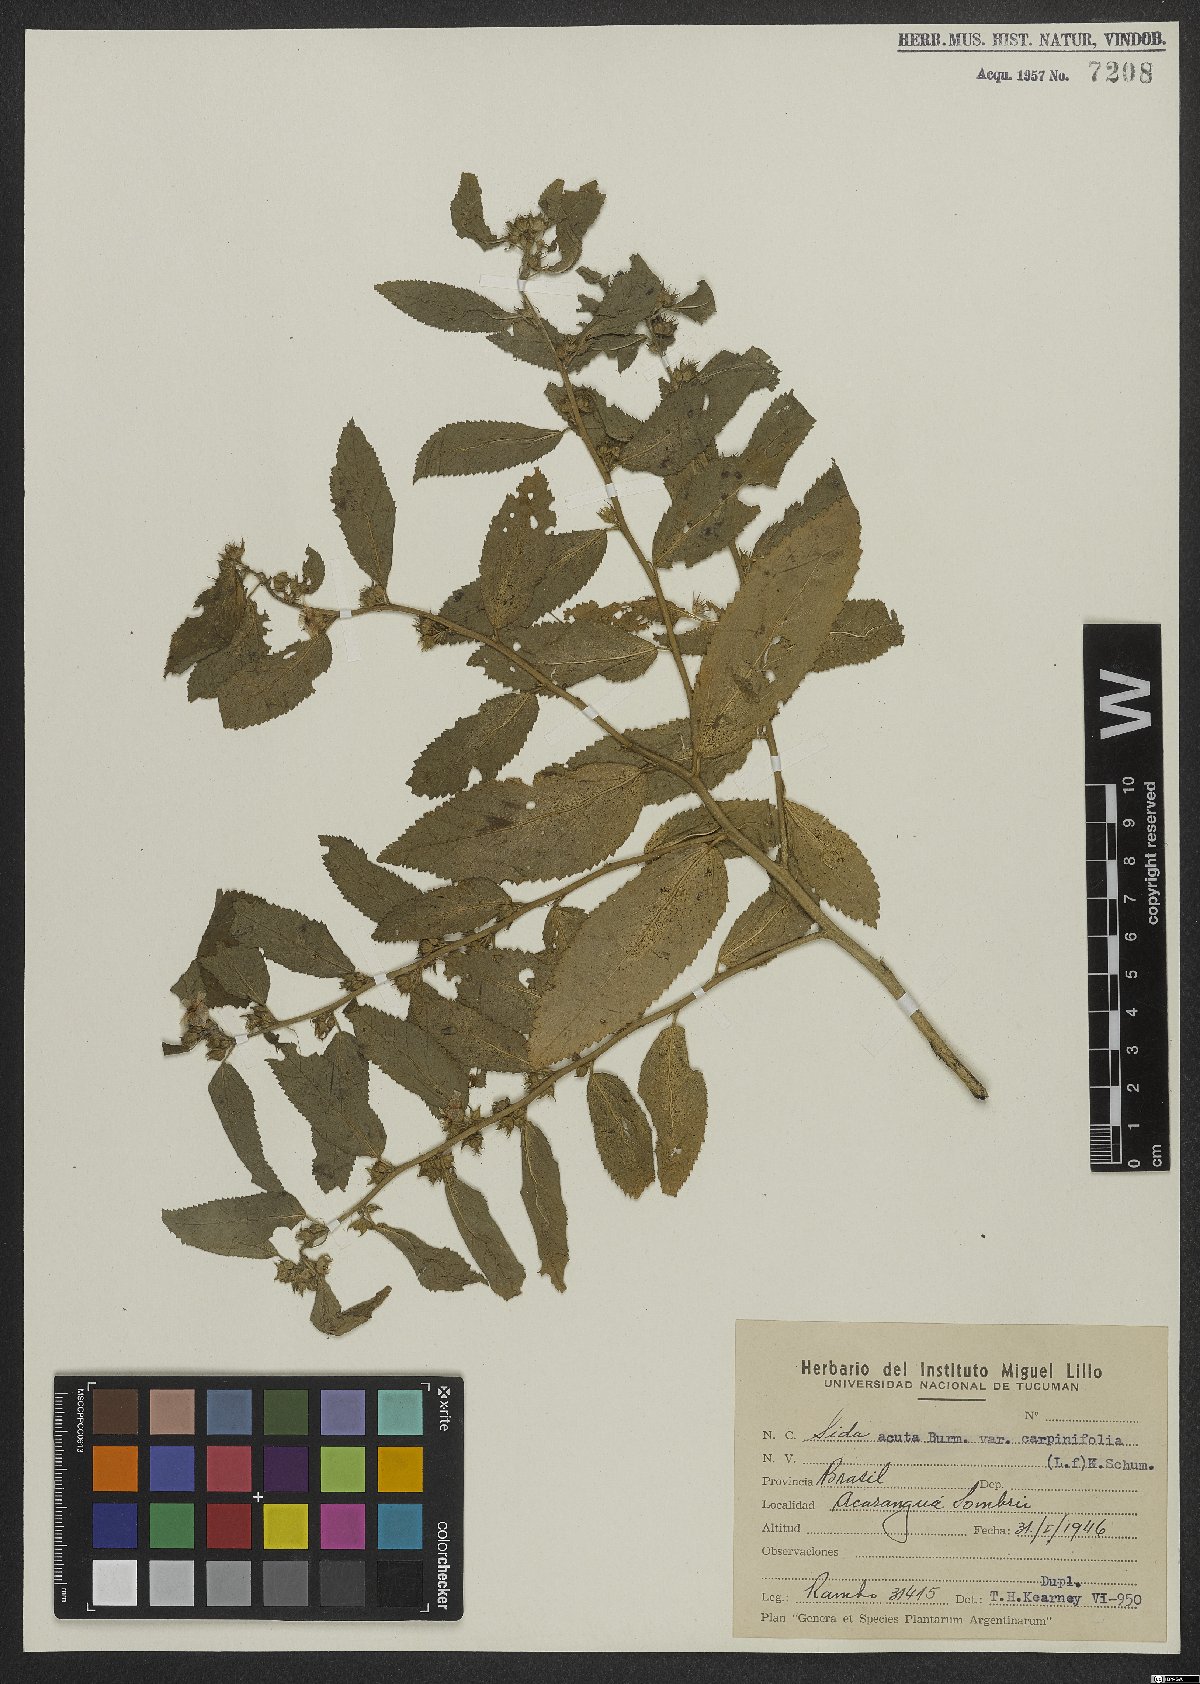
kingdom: Plantae
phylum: Tracheophyta
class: Magnoliopsida
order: Malvales
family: Malvaceae
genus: Sida
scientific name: Sida planicaulis
